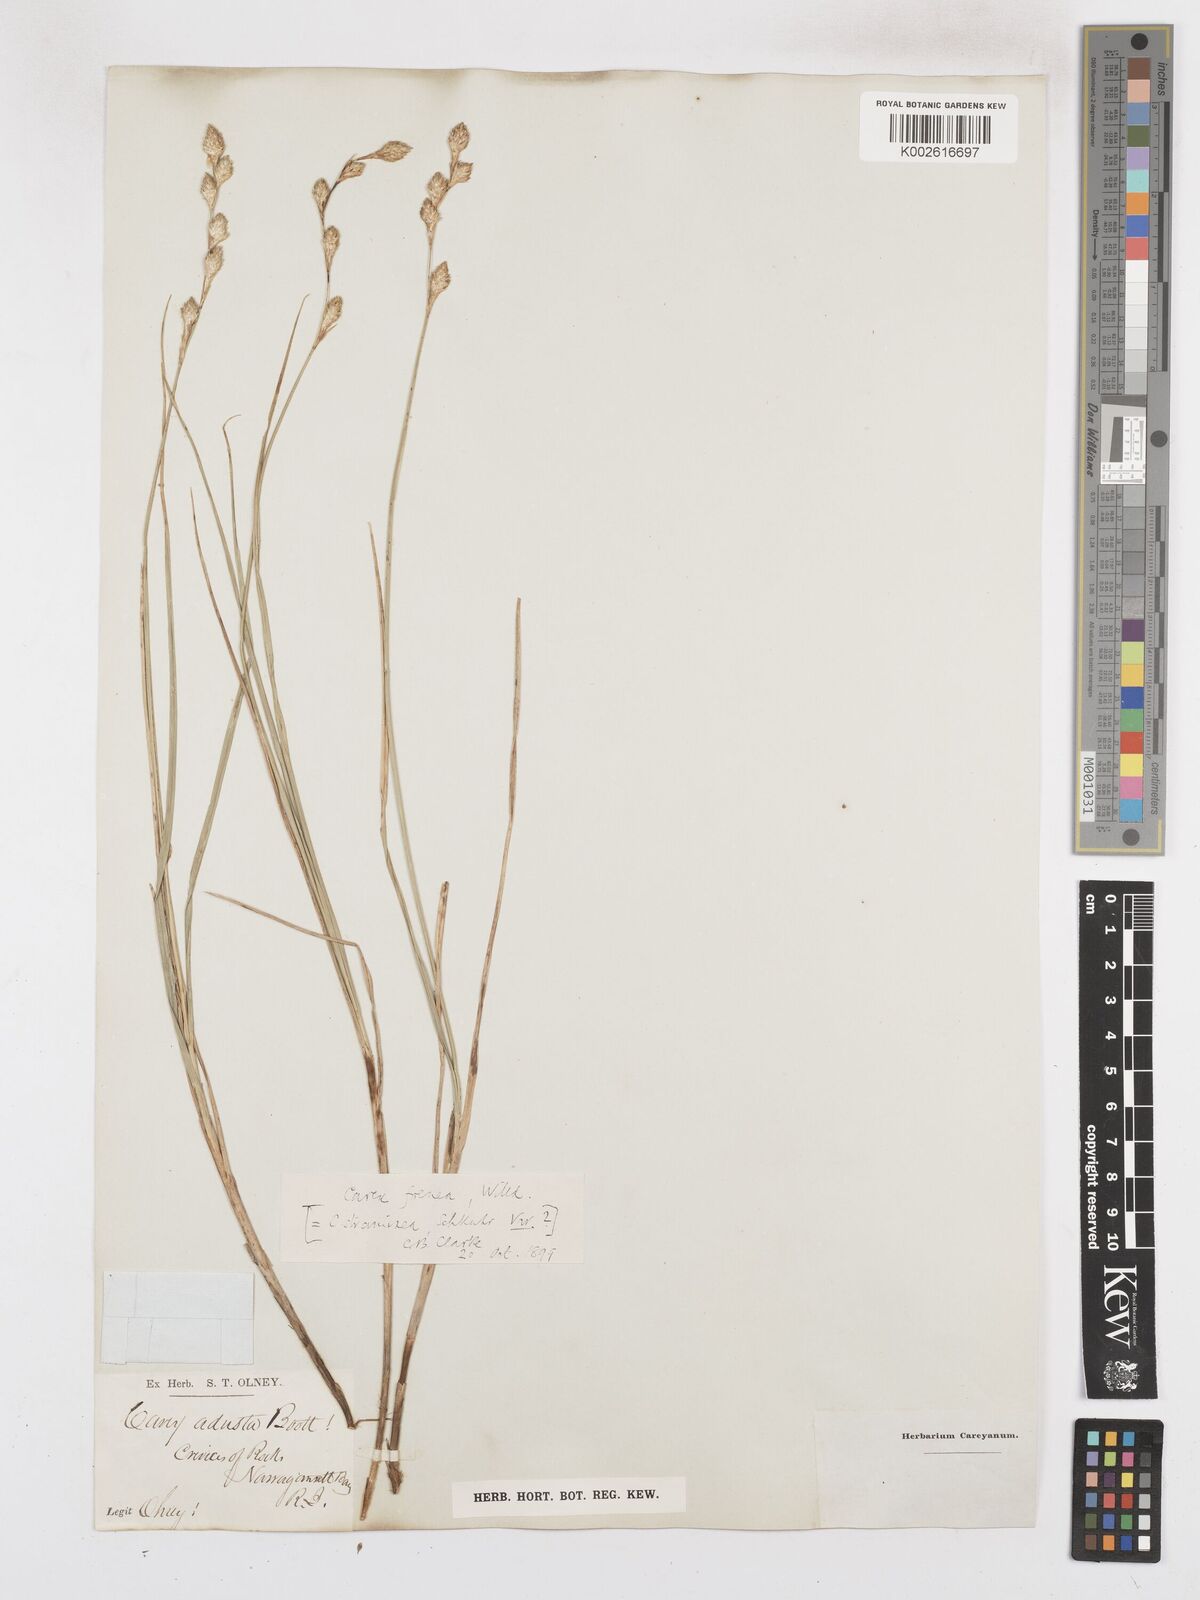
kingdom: Plantae
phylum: Tracheophyta
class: Liliopsida
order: Poales
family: Cyperaceae
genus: Carex
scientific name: Carex argyrantha
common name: Silvery-flowered sedge
